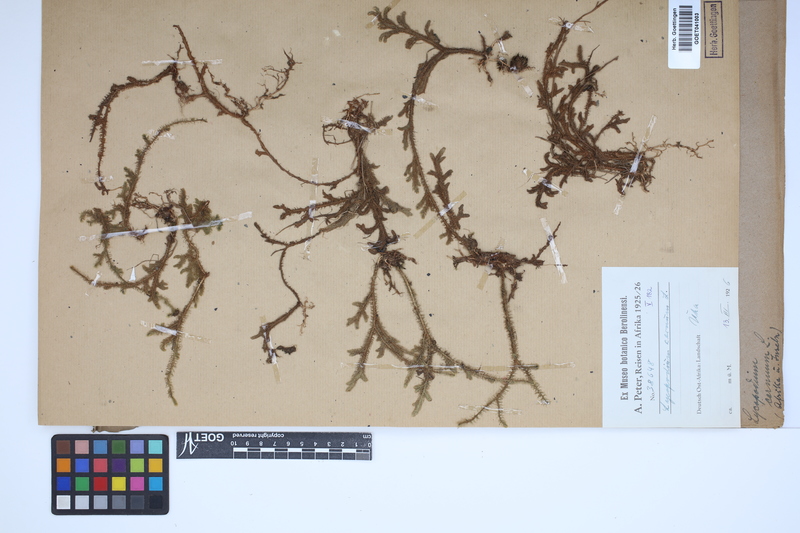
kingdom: Plantae
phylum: Tracheophyta
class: Lycopodiopsida
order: Lycopodiales
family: Lycopodiaceae
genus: Palhinhaea
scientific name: Palhinhaea cernua
